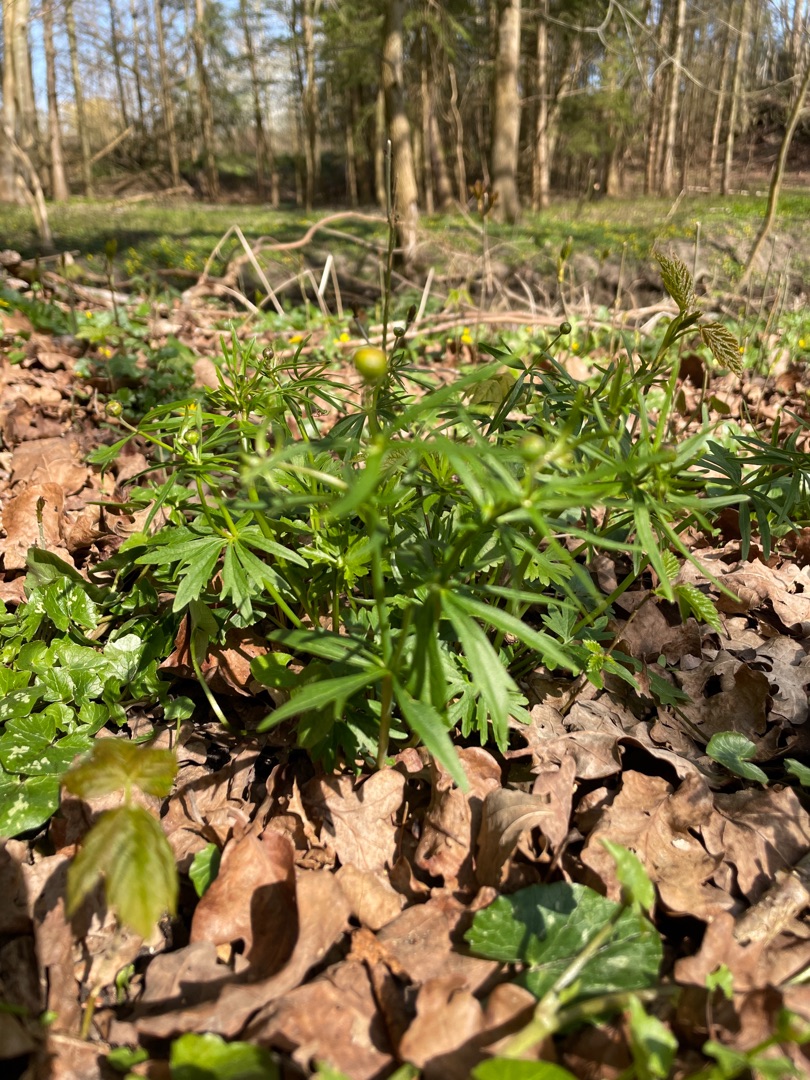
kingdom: Plantae
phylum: Tracheophyta
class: Magnoliopsida
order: Ranunculales
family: Ranunculaceae
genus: Ranunculus
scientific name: Ranunculus auricomus
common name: Nyrebladet ranunkel
